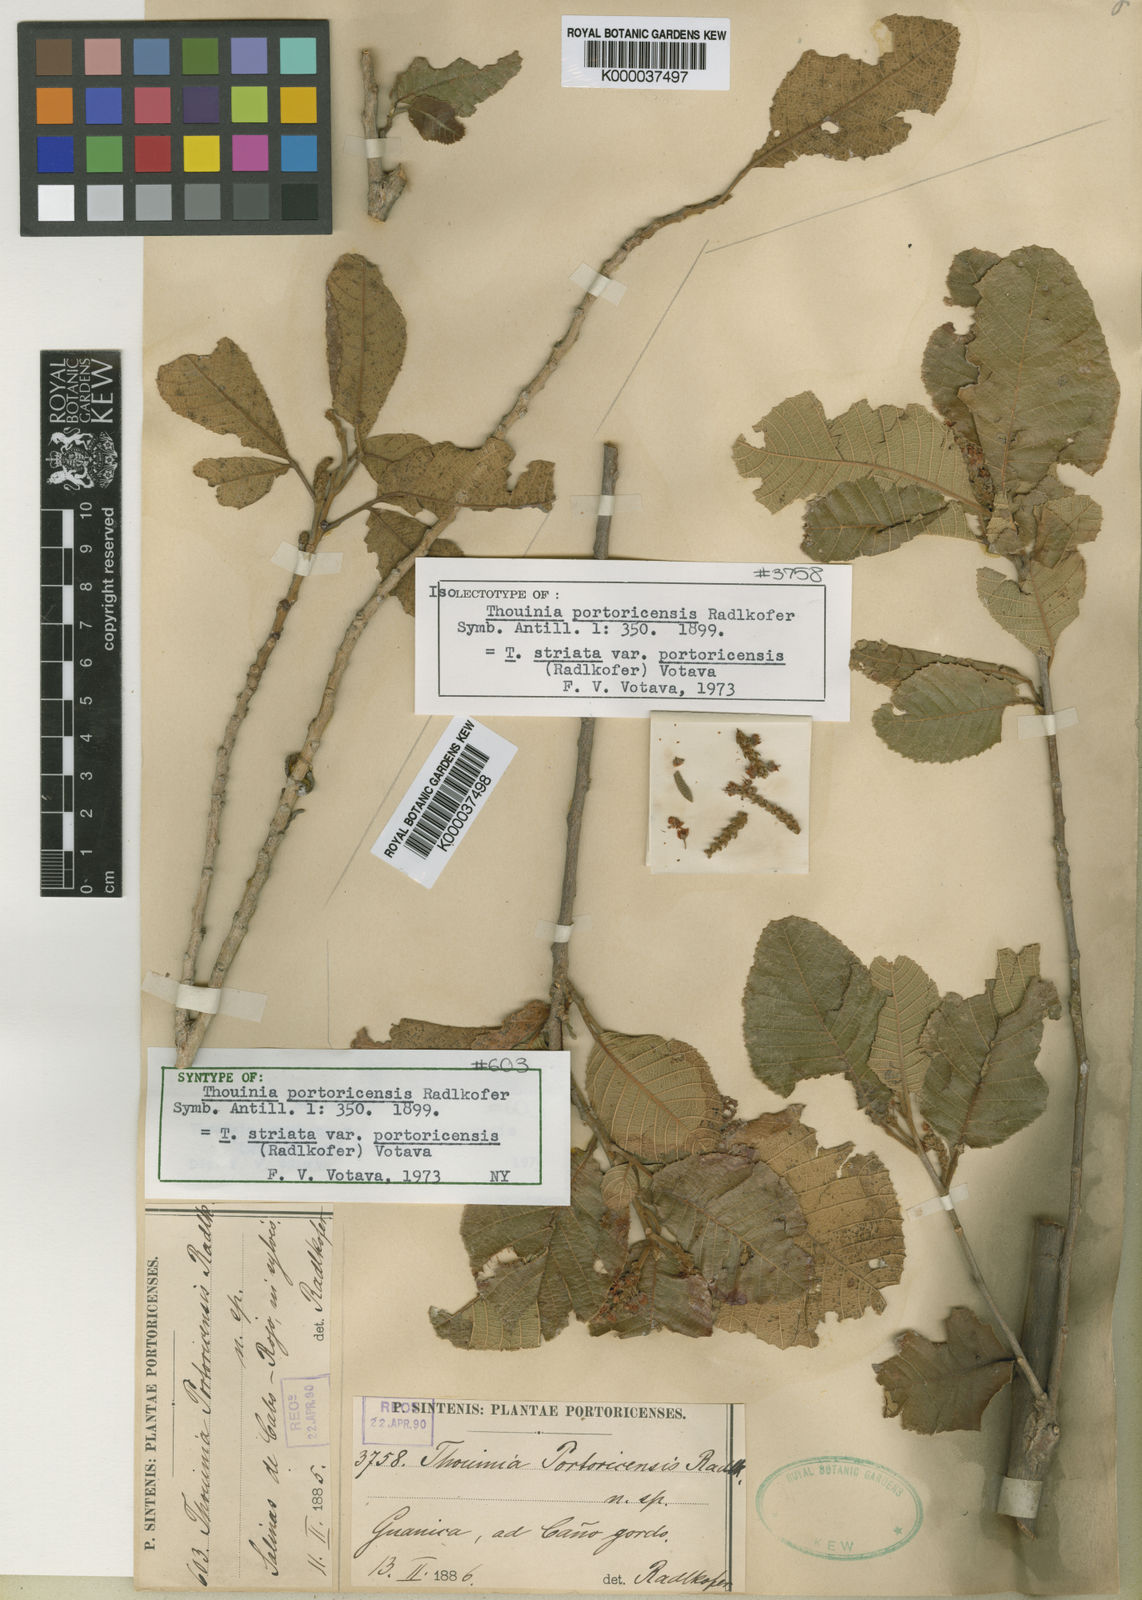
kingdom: Plantae
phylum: Tracheophyta
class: Magnoliopsida
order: Sapindales
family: Sapindaceae
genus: Thouinia
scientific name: Thouinia striata
